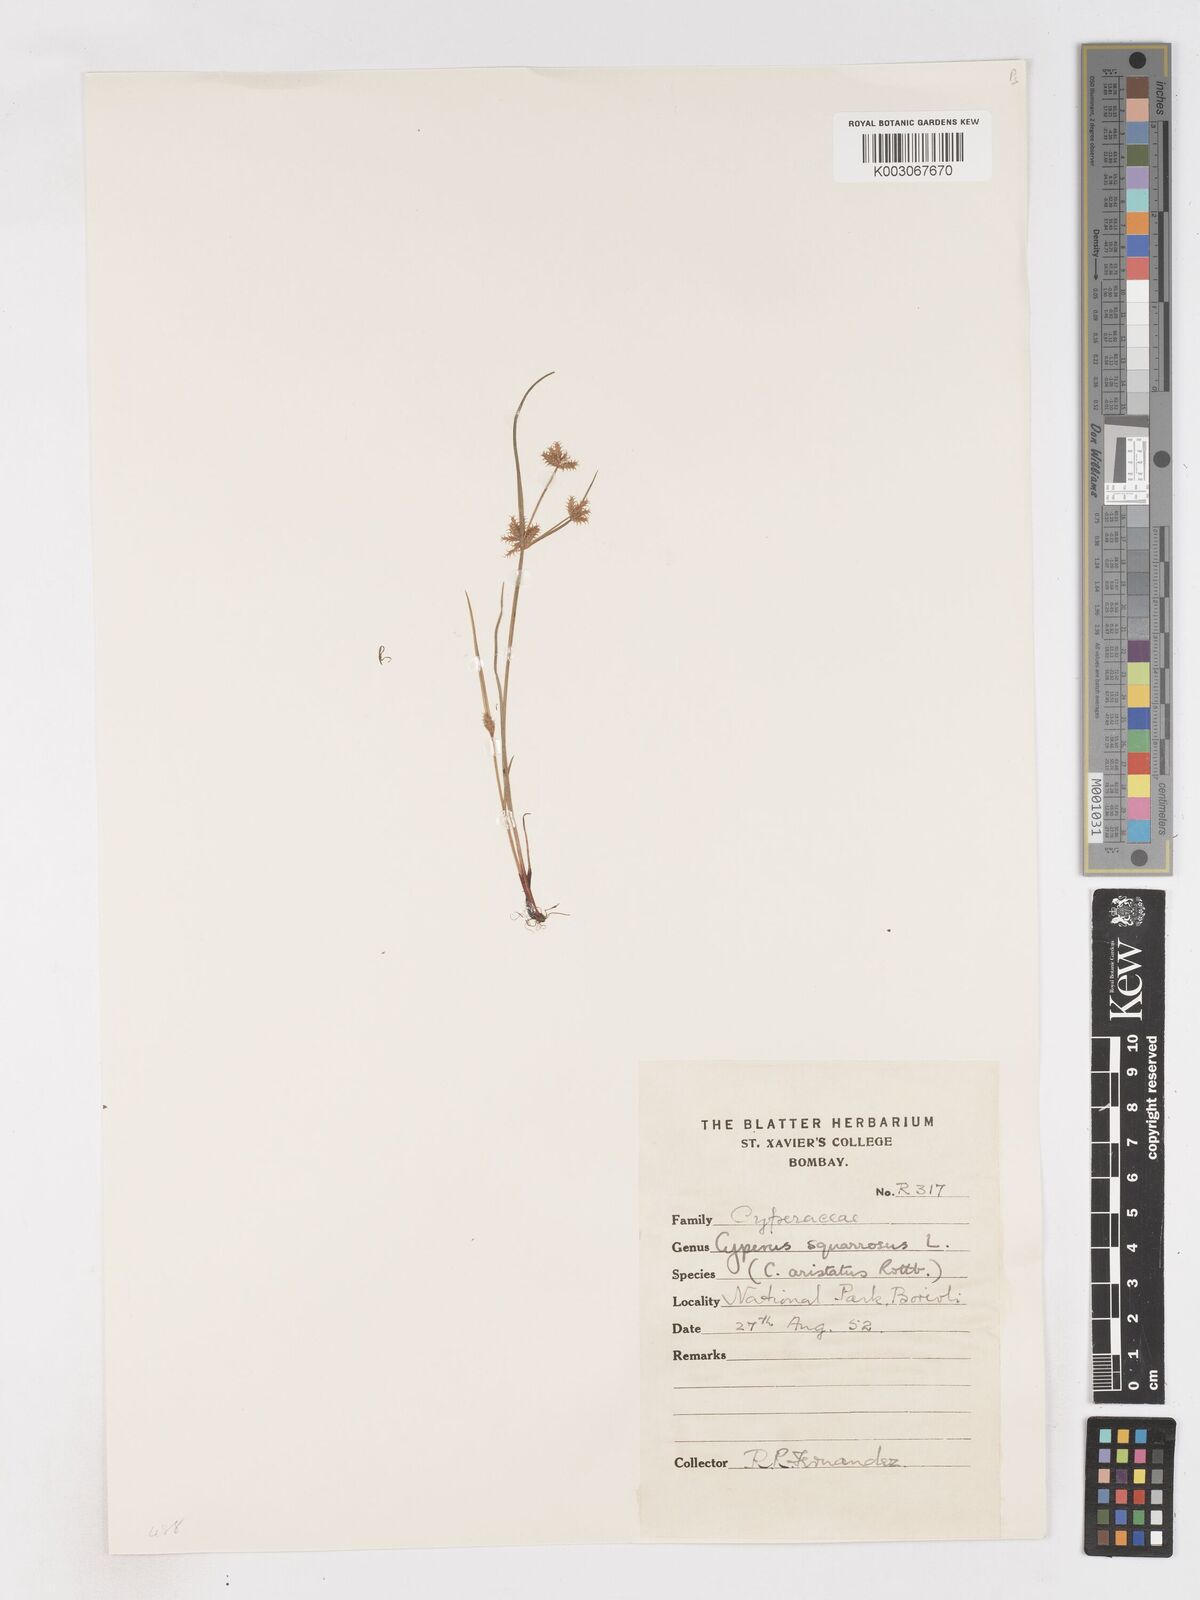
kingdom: Plantae
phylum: Tracheophyta
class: Liliopsida
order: Poales
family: Cyperaceae
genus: Cyperus
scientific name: Cyperus squarrosus
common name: Awned cyperus
